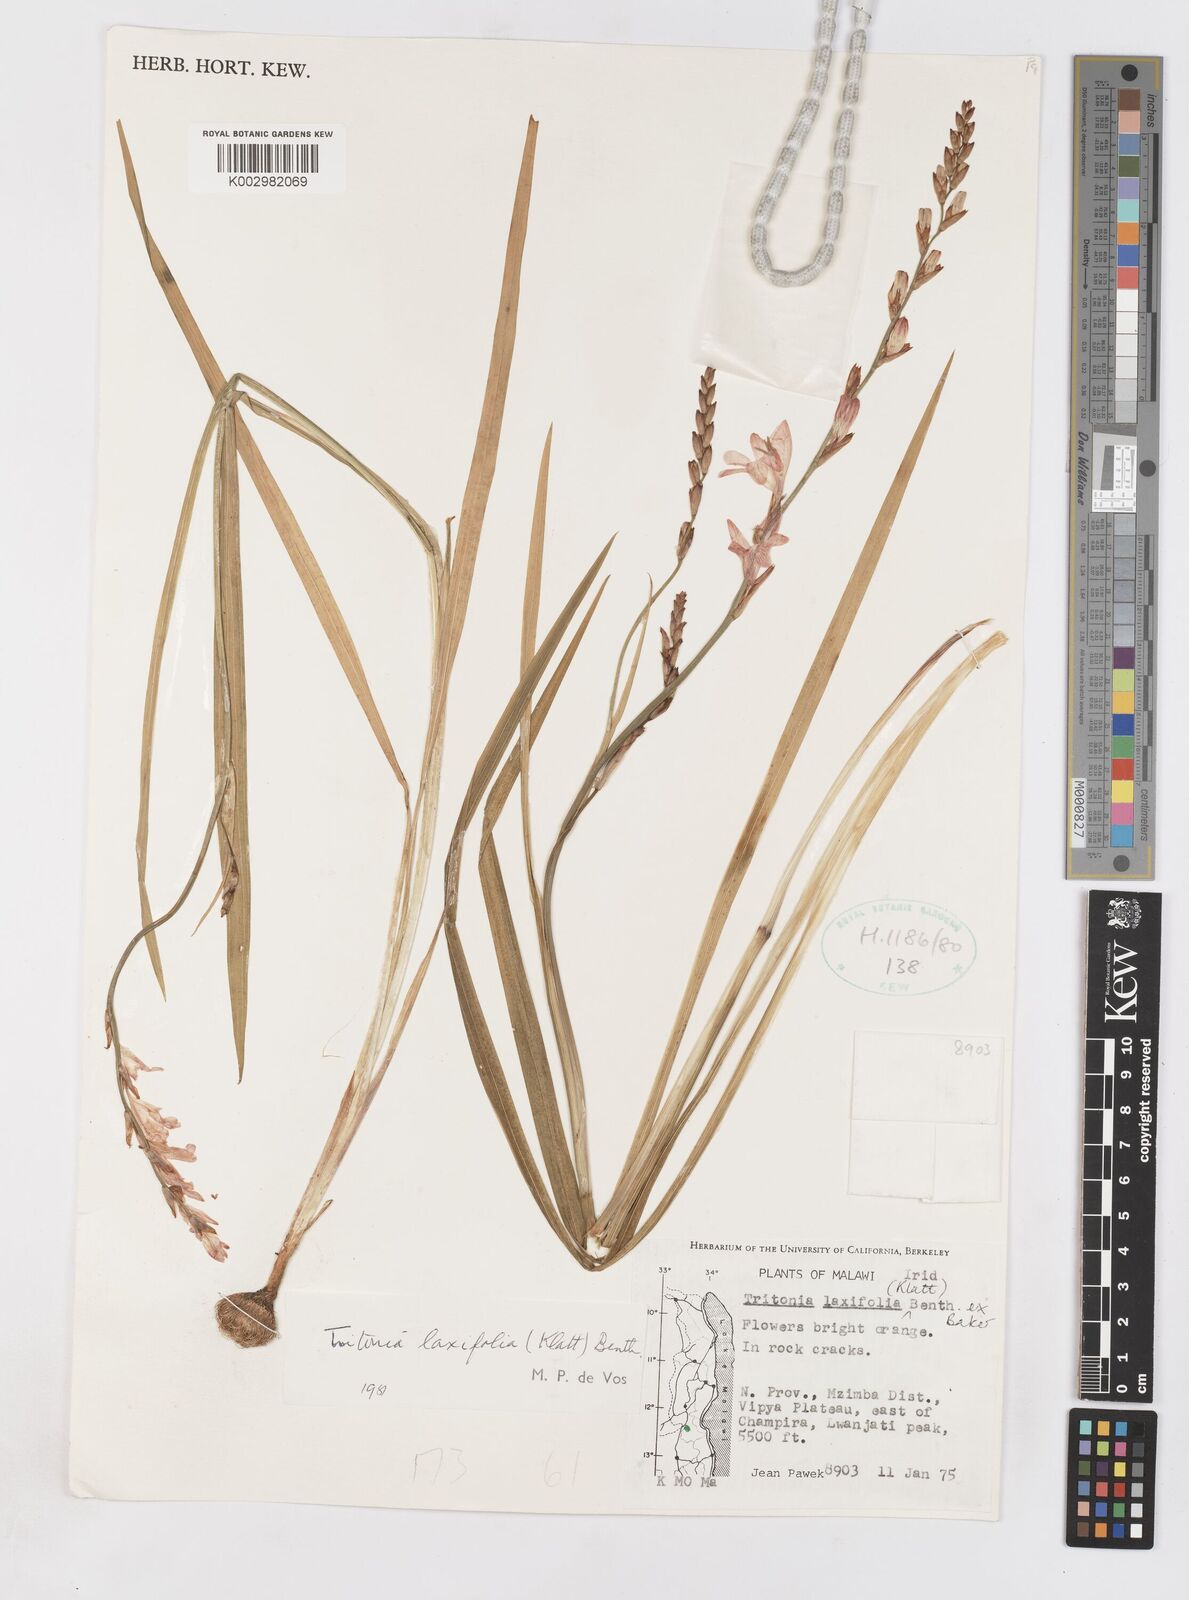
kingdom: Plantae
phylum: Tracheophyta
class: Liliopsida
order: Asparagales
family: Iridaceae
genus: Tritonia
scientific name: Tritonia laxifolia
